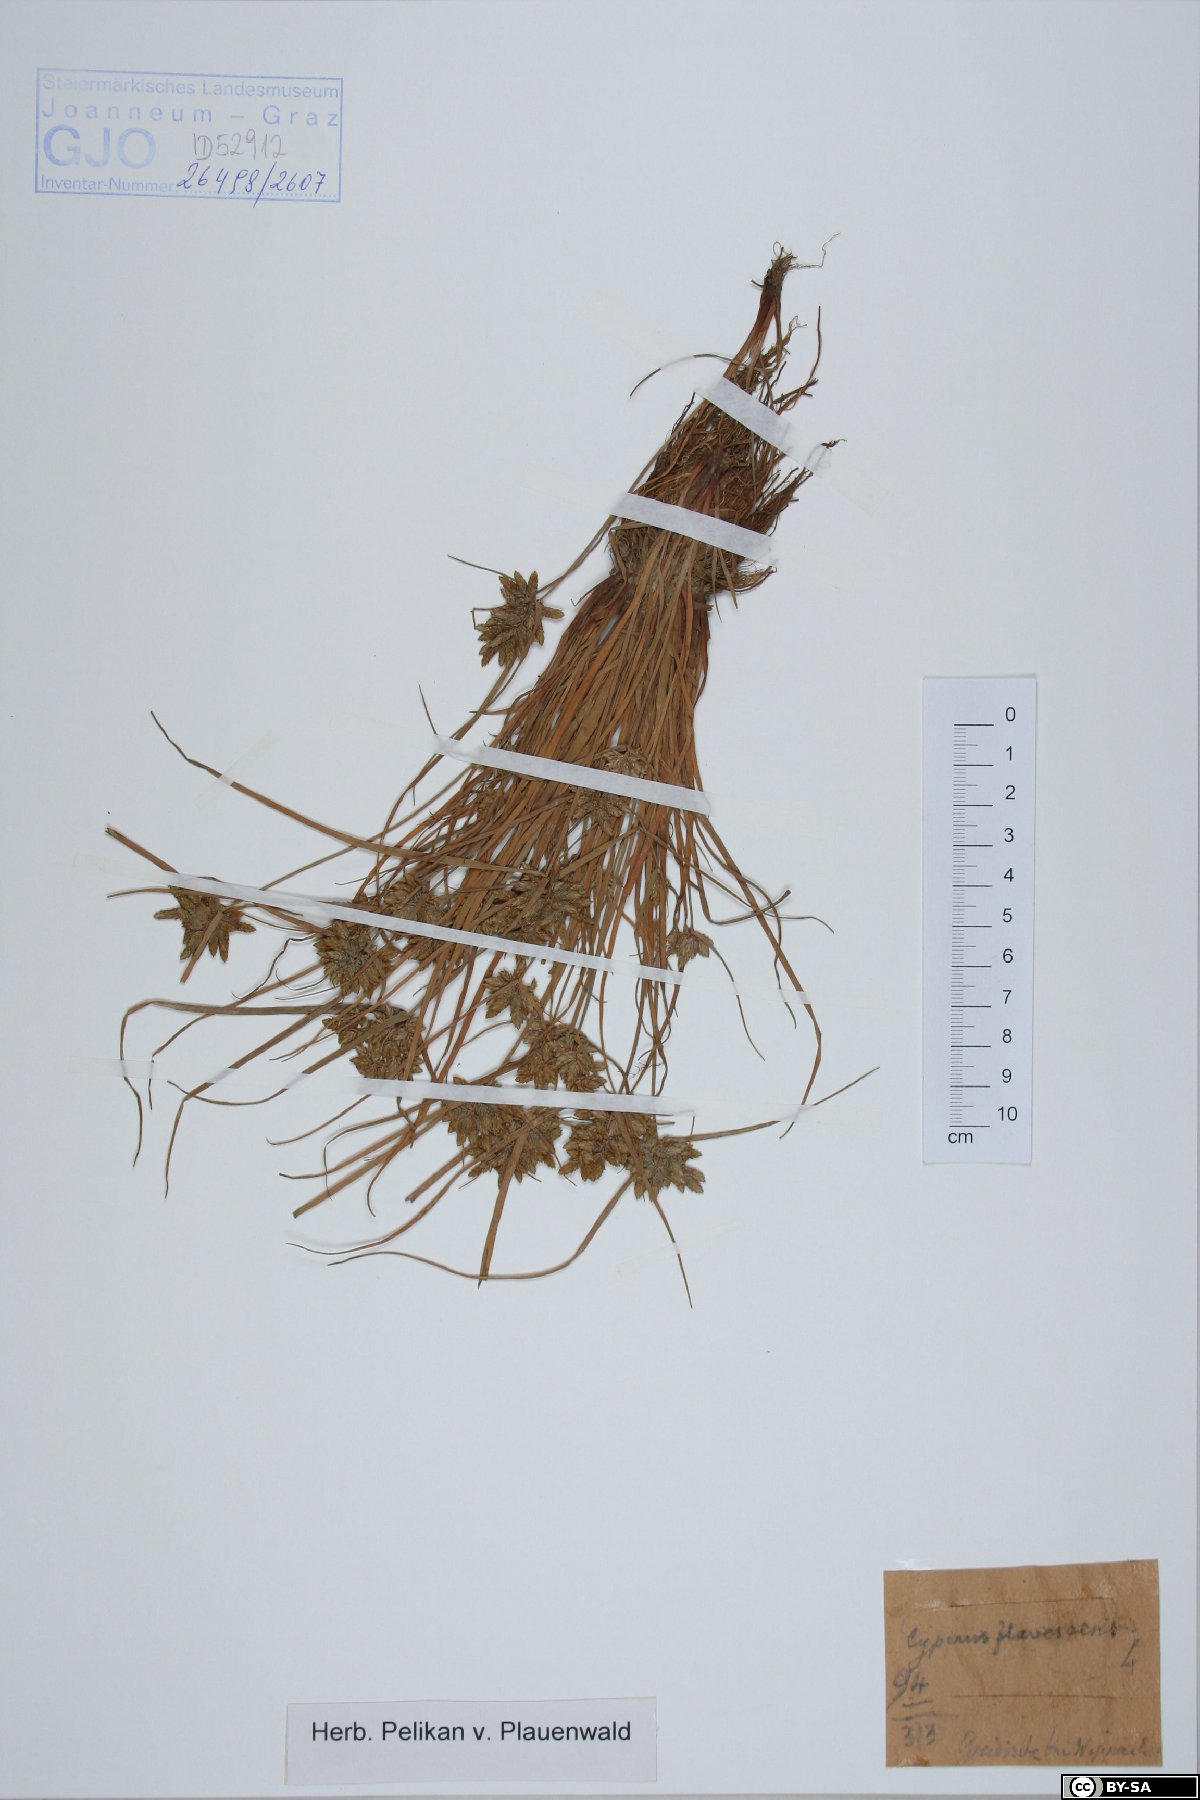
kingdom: Plantae
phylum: Tracheophyta
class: Liliopsida
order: Poales
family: Cyperaceae
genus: Cyperus
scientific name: Cyperus flavescens
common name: Yellow galingale
